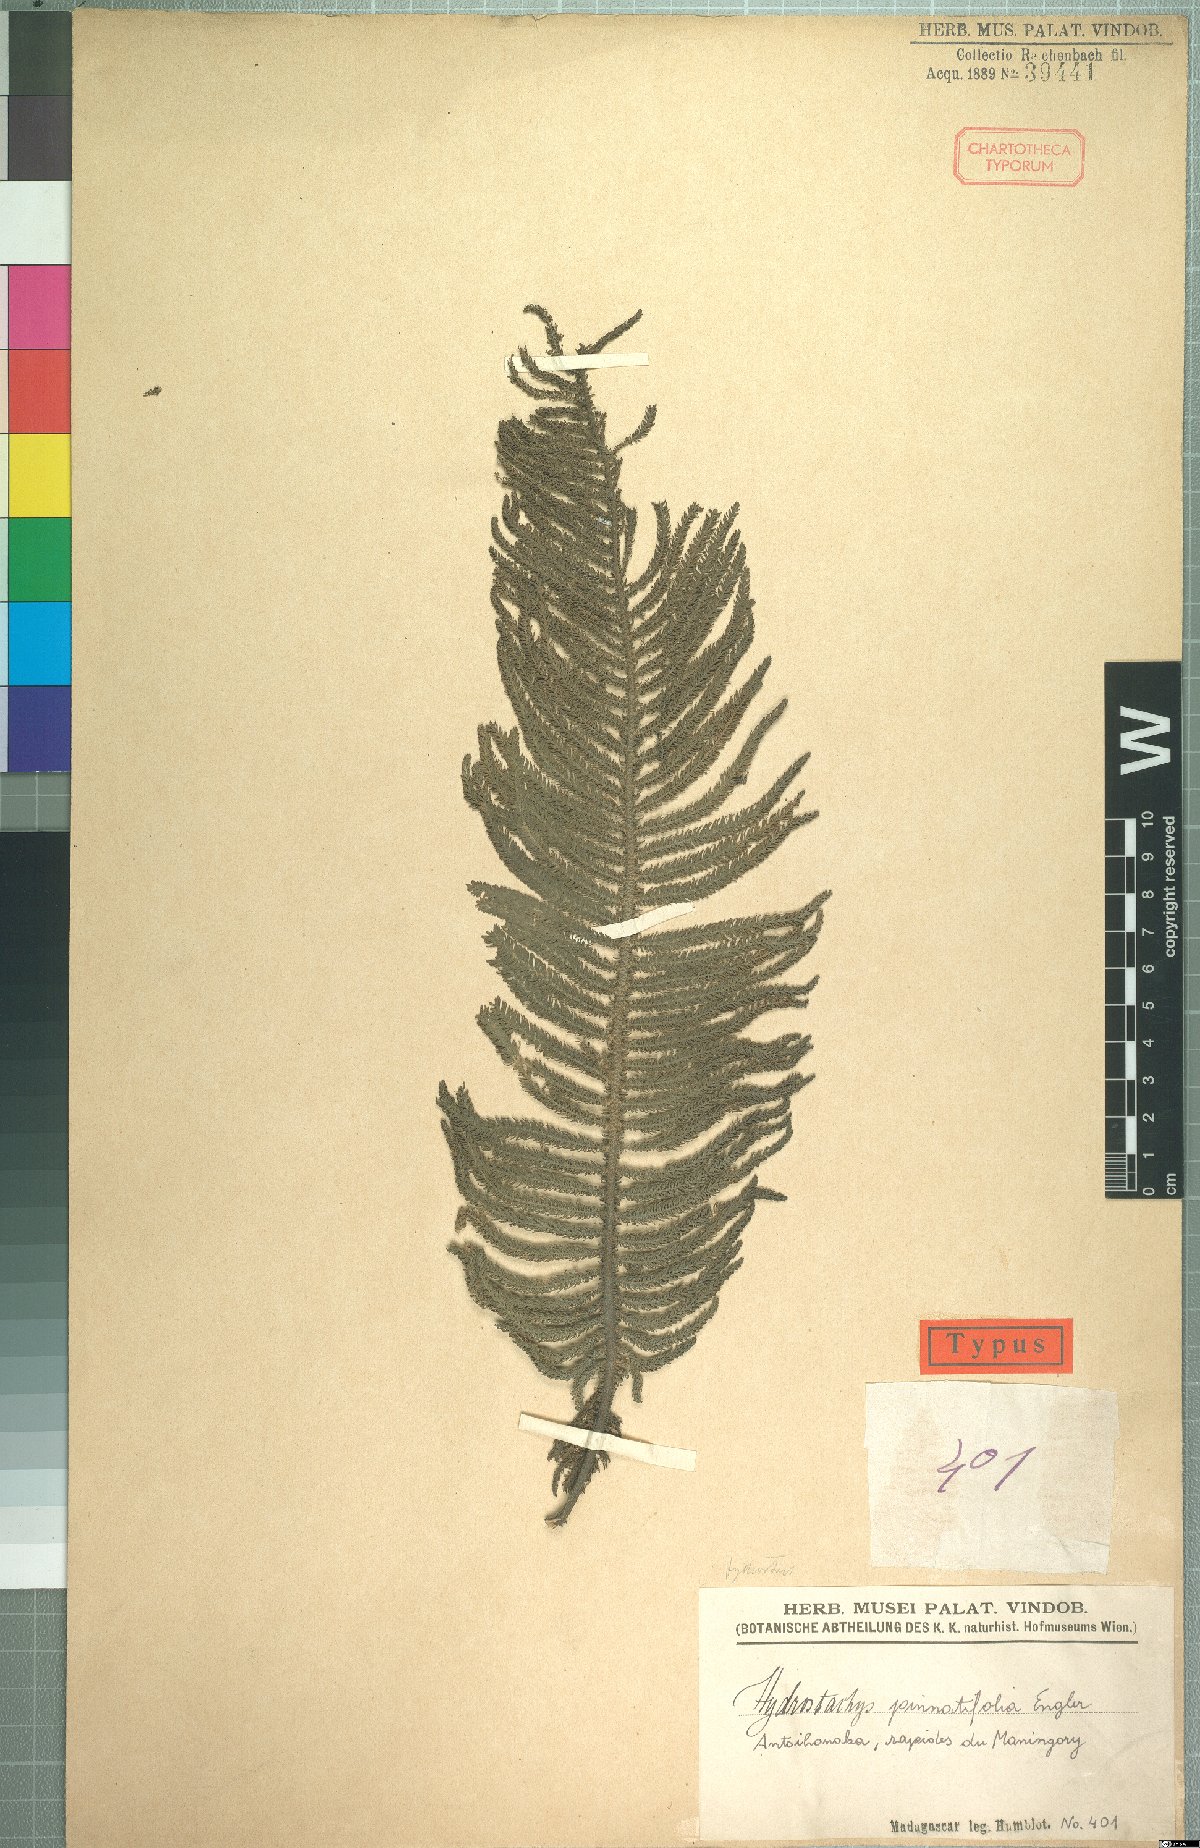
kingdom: Plantae
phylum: Tracheophyta
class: Magnoliopsida
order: Cornales
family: Hydrostachyaceae
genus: Hydrostachys
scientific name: Hydrostachys plumosa
